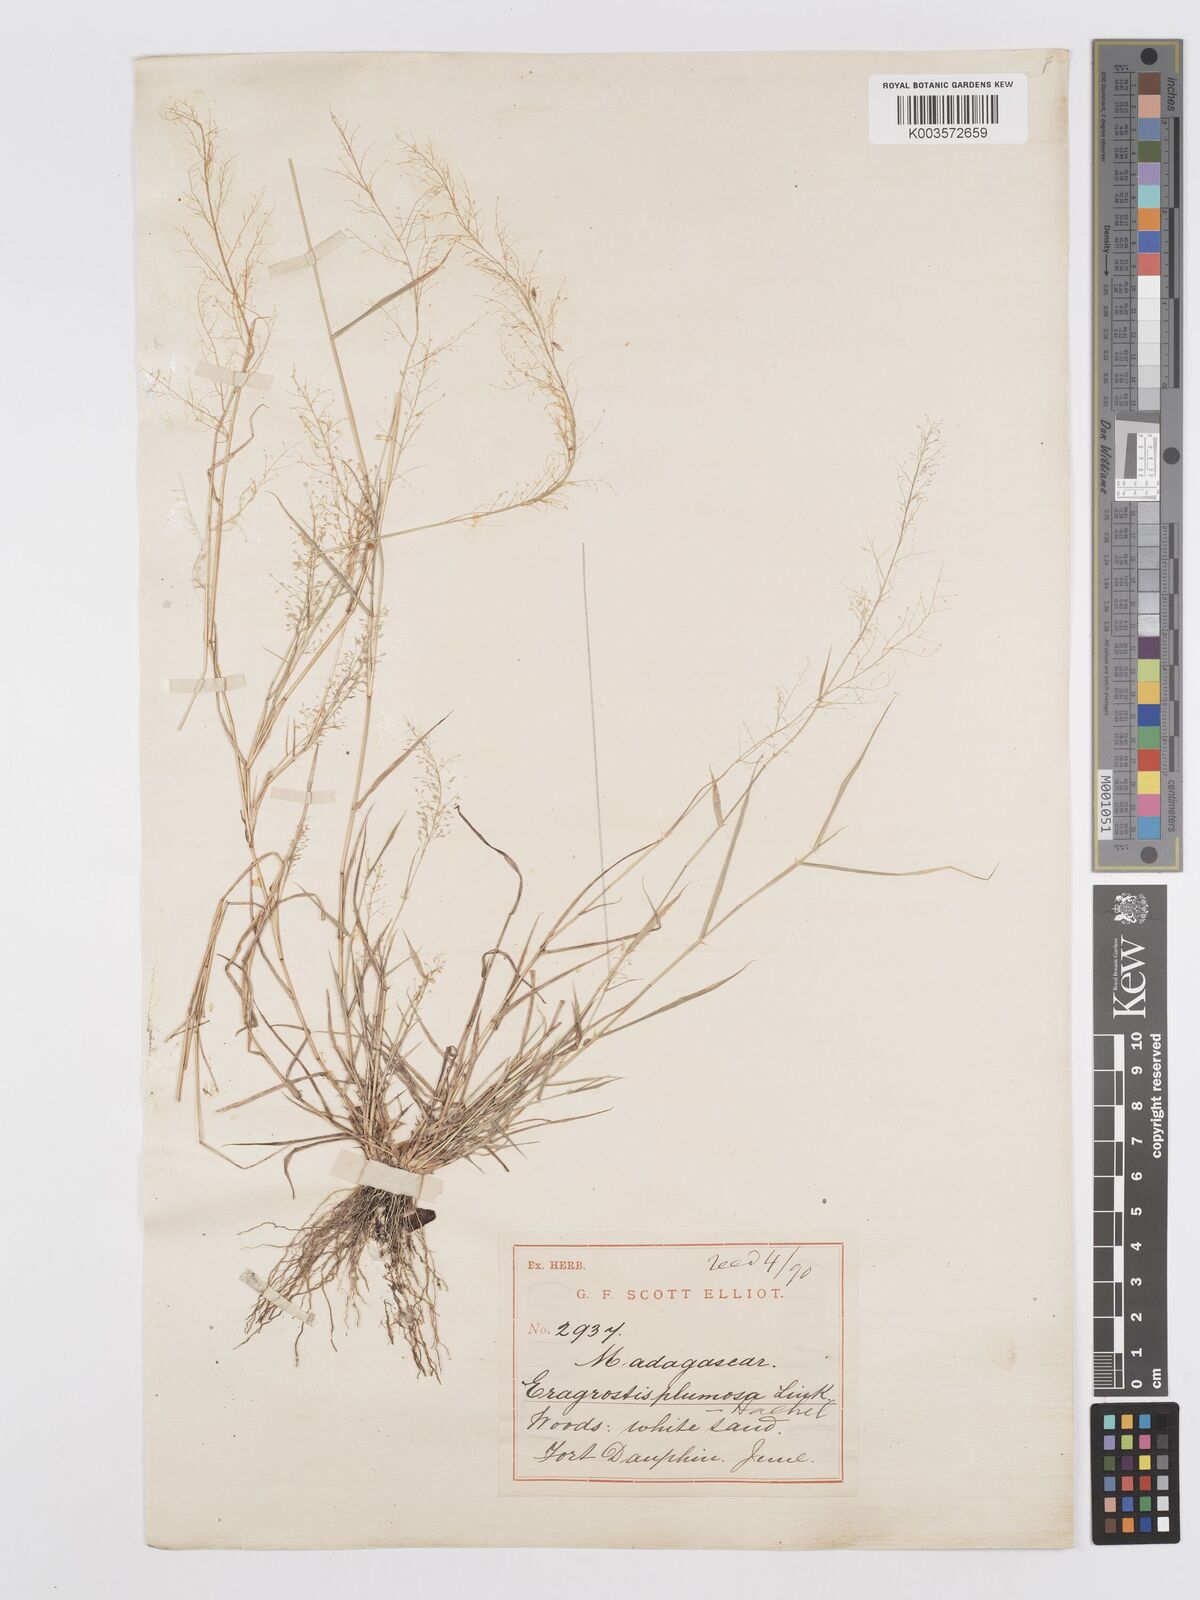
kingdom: Plantae
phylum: Tracheophyta
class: Liliopsida
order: Poales
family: Poaceae
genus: Eragrostis
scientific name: Eragrostis tenella
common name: Japanese lovegrass
